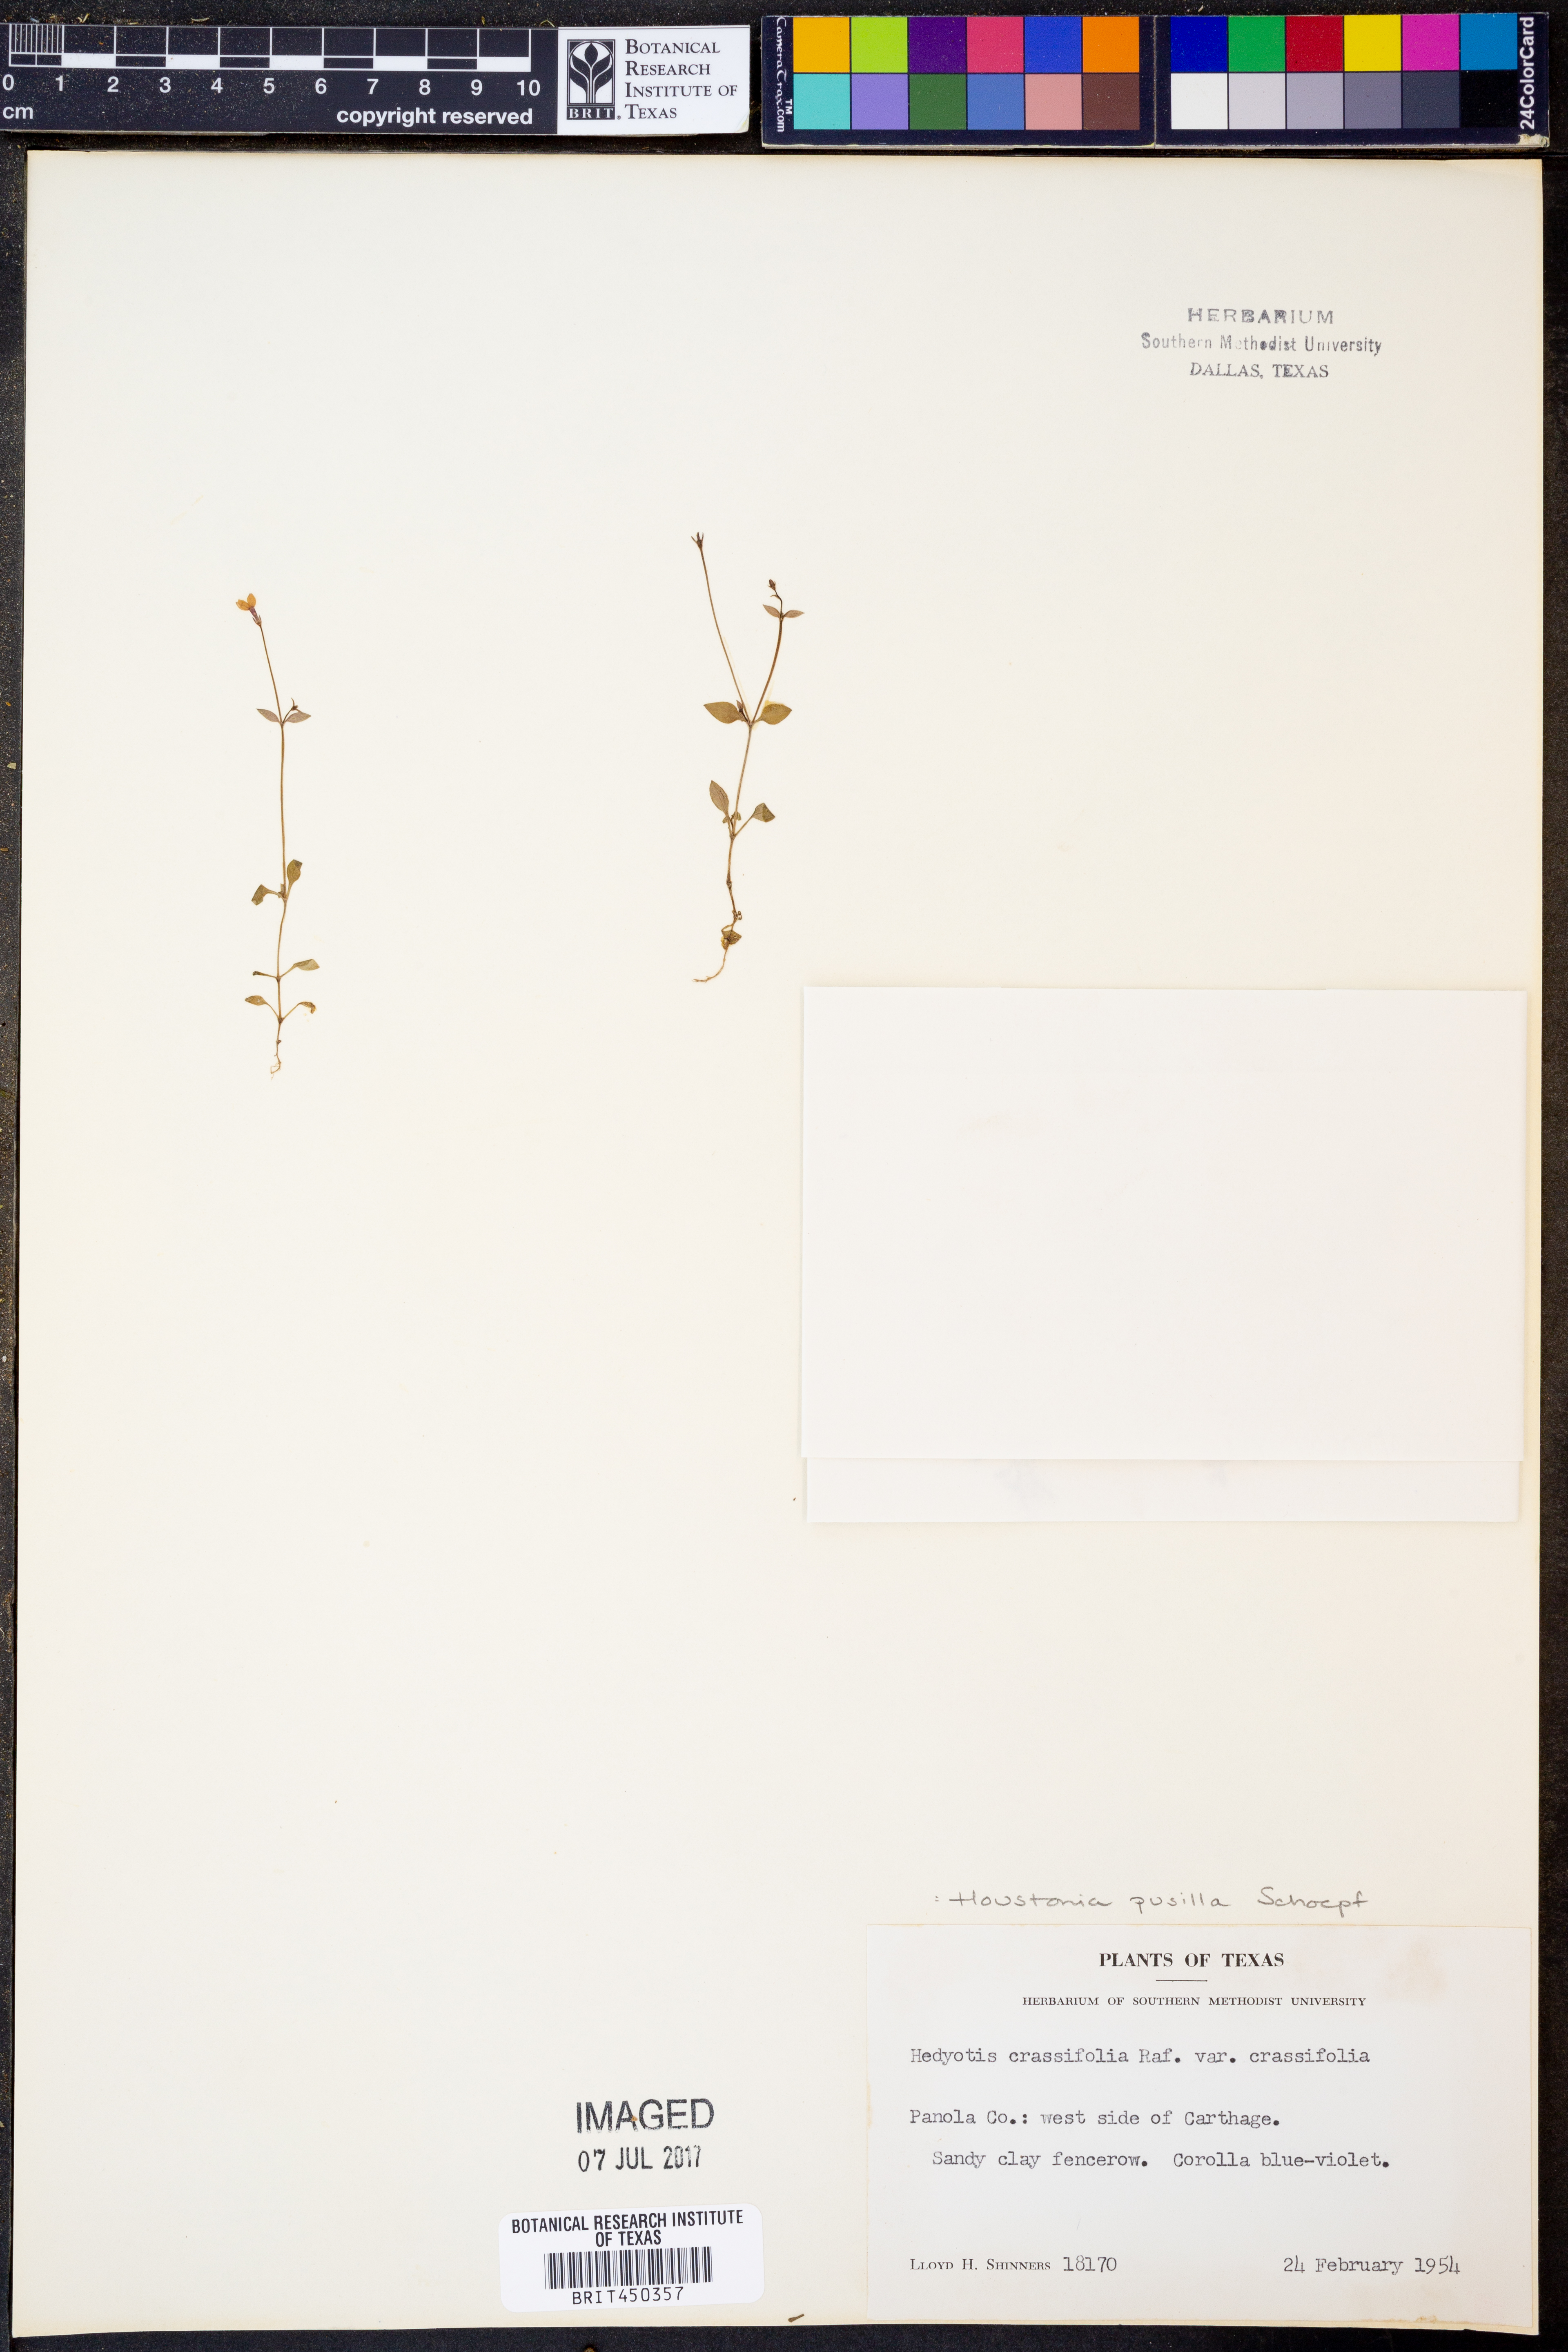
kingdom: Plantae
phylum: Tracheophyta
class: Magnoliopsida
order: Gentianales
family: Rubiaceae
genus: Hedyotis
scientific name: Hedyotis crassifolia
